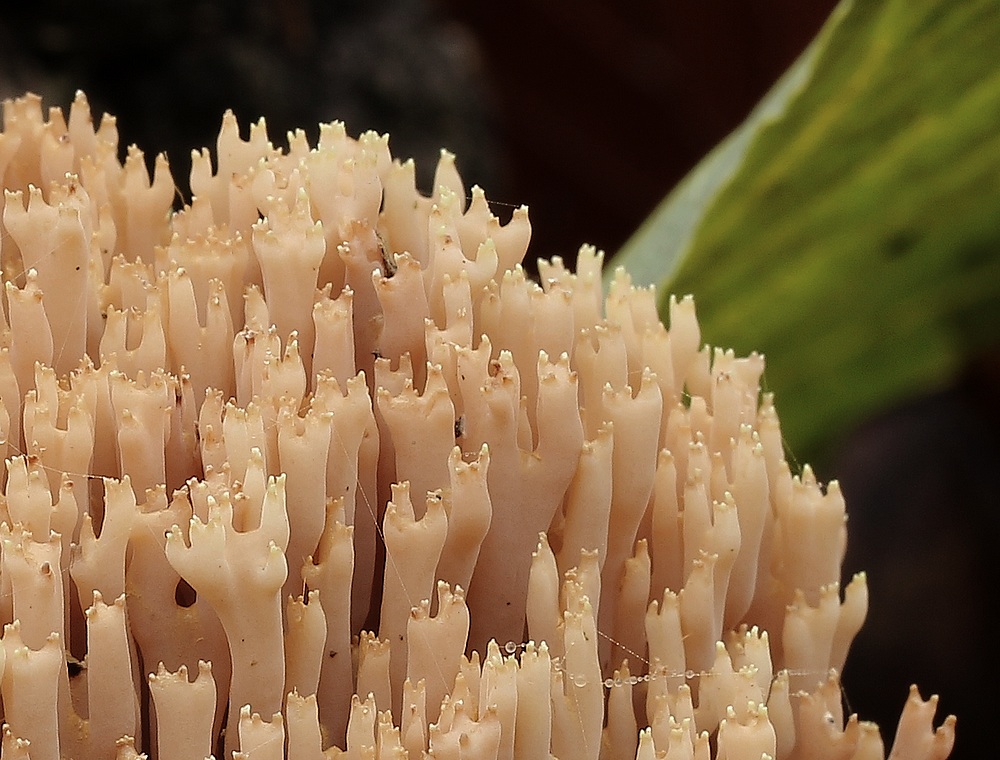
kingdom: Fungi
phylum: Basidiomycota
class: Agaricomycetes
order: Gomphales
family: Gomphaceae
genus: Ramaria
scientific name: Ramaria stricta
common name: rank koralsvamp
